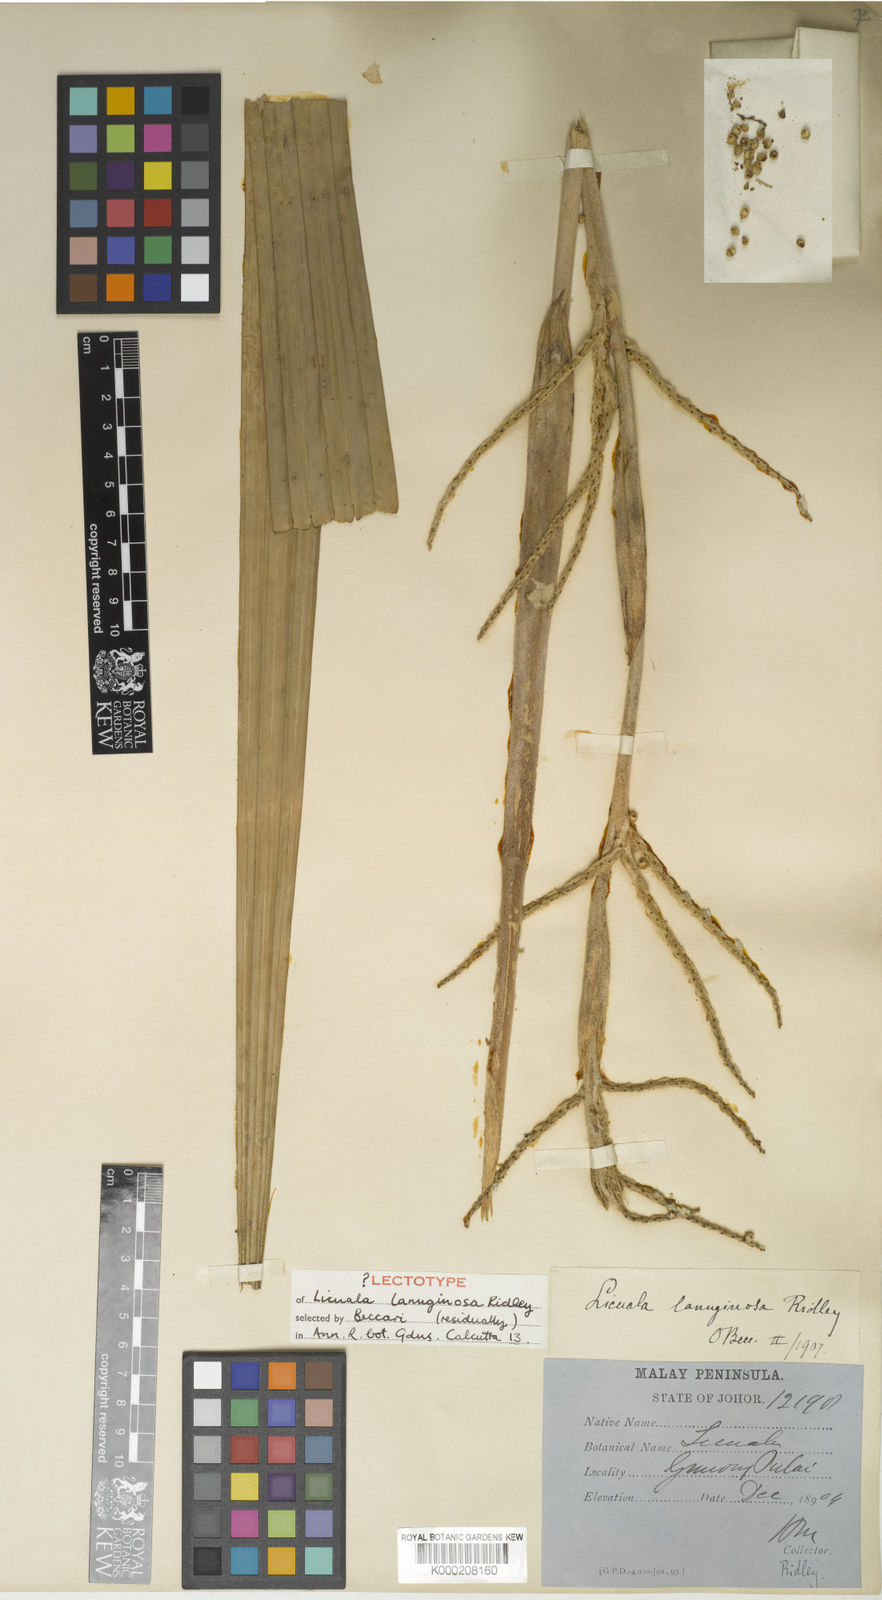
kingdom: Plantae
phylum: Tracheophyta
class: Liliopsida
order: Arecales
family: Arecaceae
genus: Licuala
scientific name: Licuala lanuginosa
